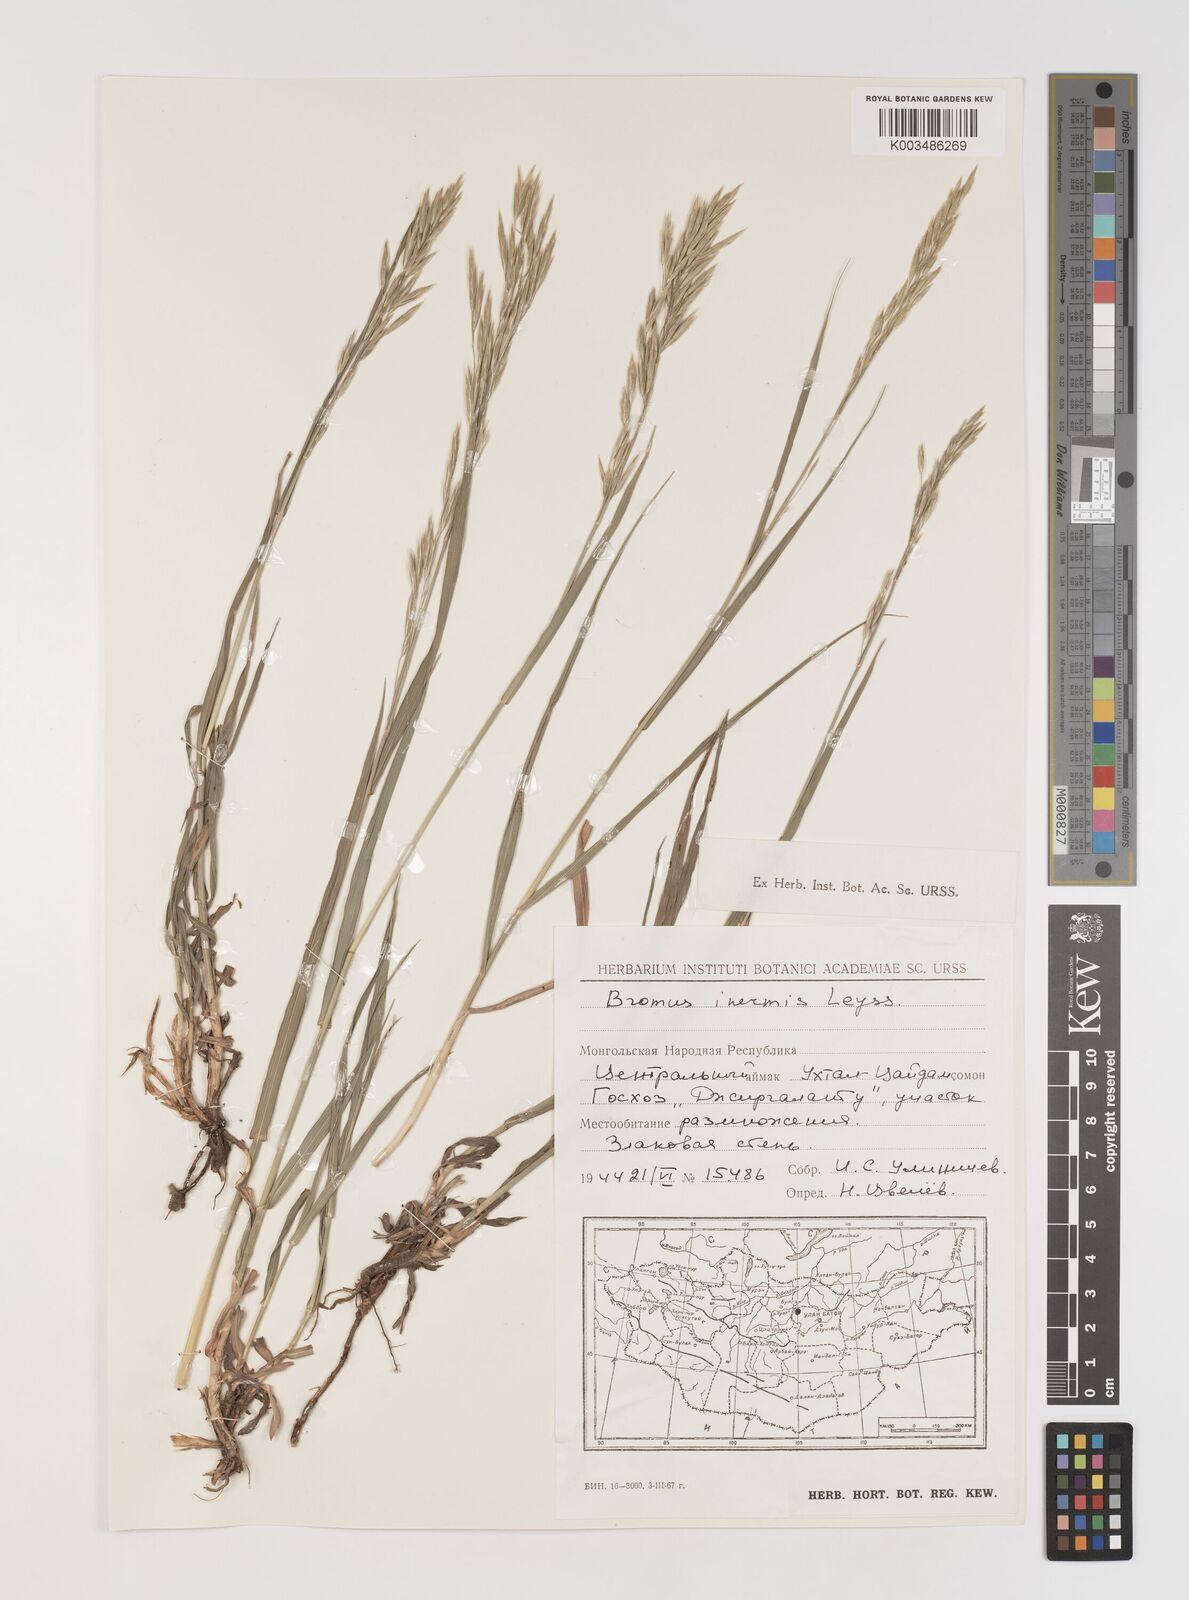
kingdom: Plantae
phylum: Tracheophyta
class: Liliopsida
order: Poales
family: Poaceae
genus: Bromus
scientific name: Bromus inermis
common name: Smooth brome
